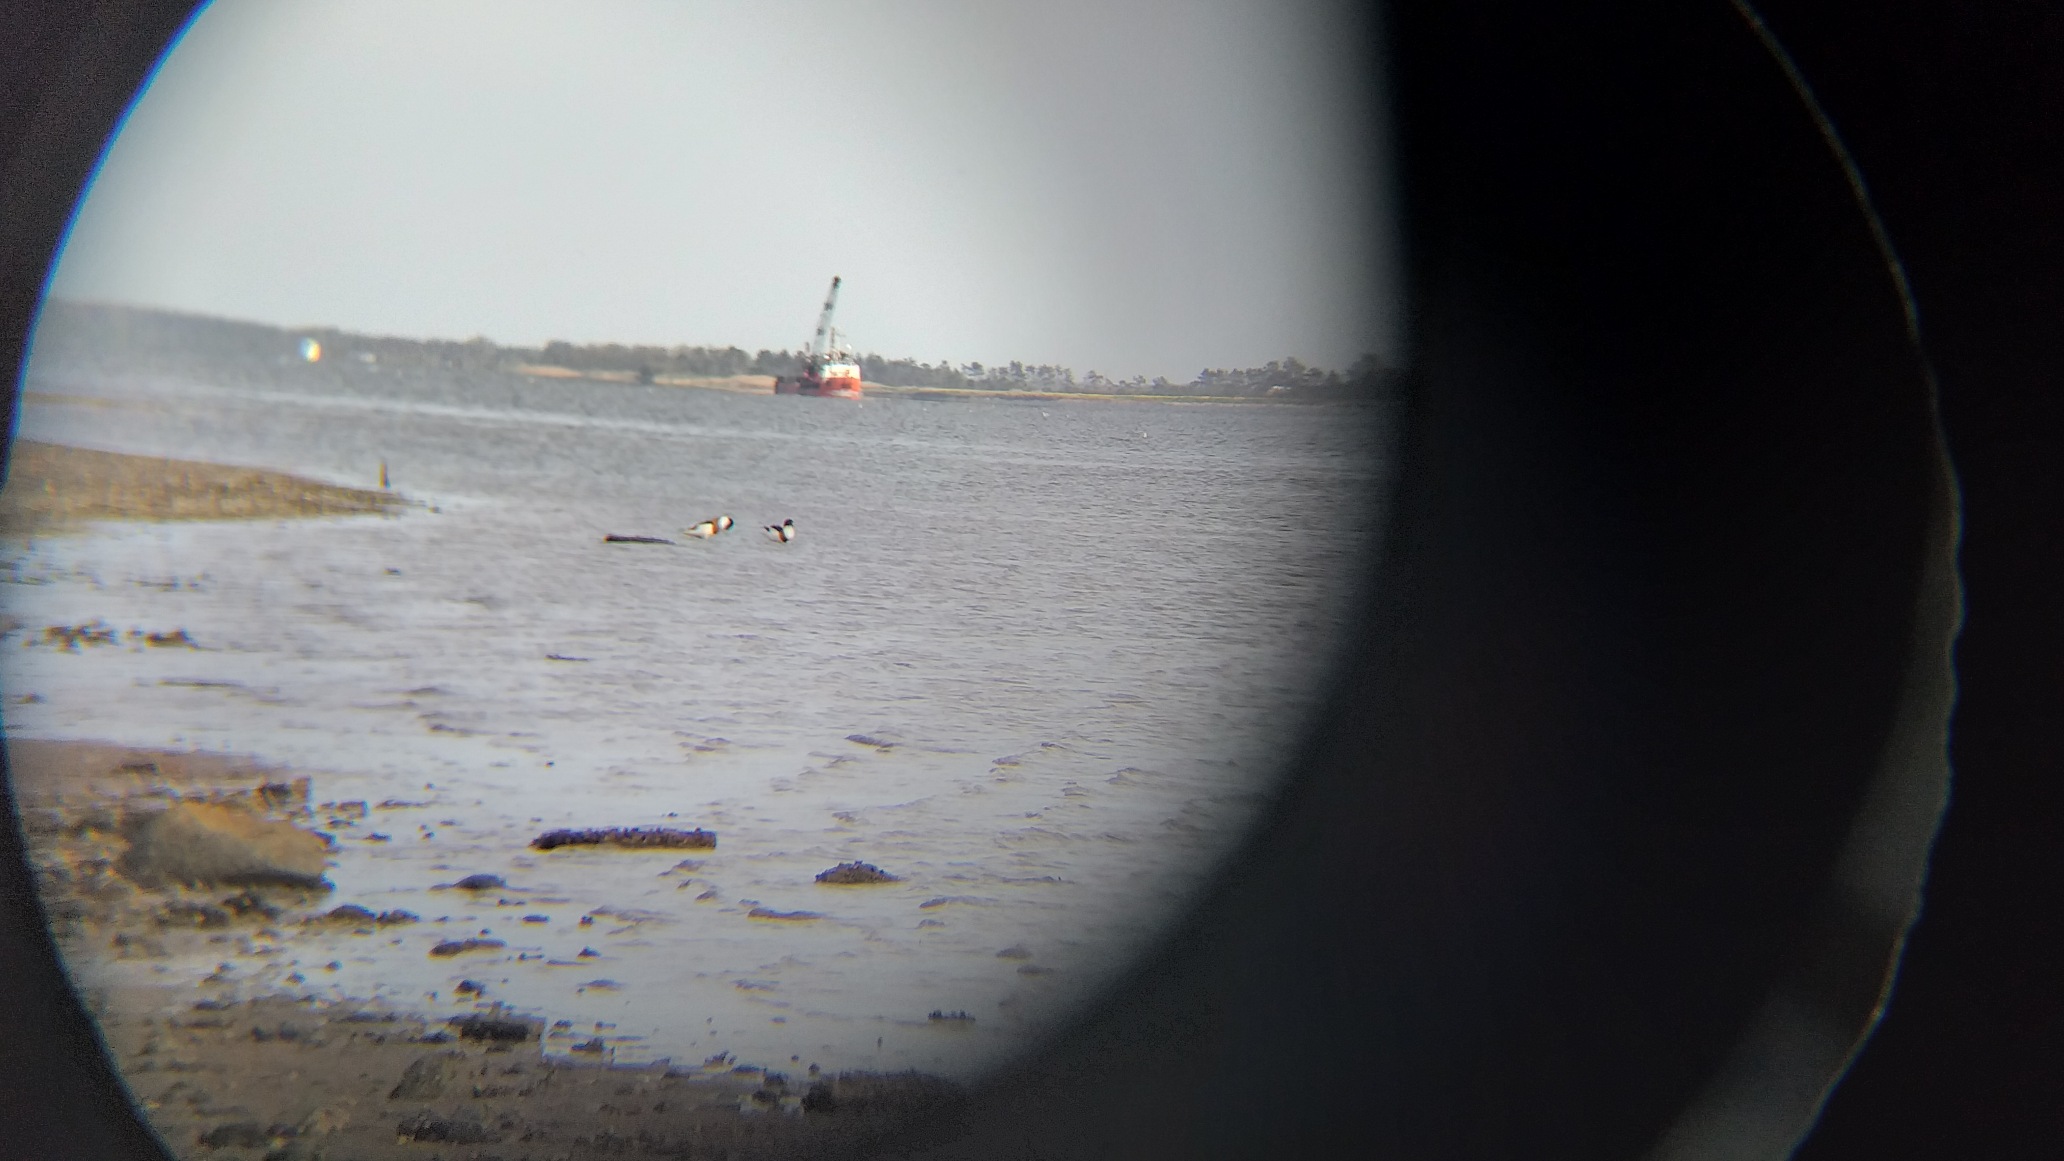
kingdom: Animalia
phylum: Chordata
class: Aves
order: Anseriformes
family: Anatidae
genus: Tadorna
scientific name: Tadorna tadorna
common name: Gravand
